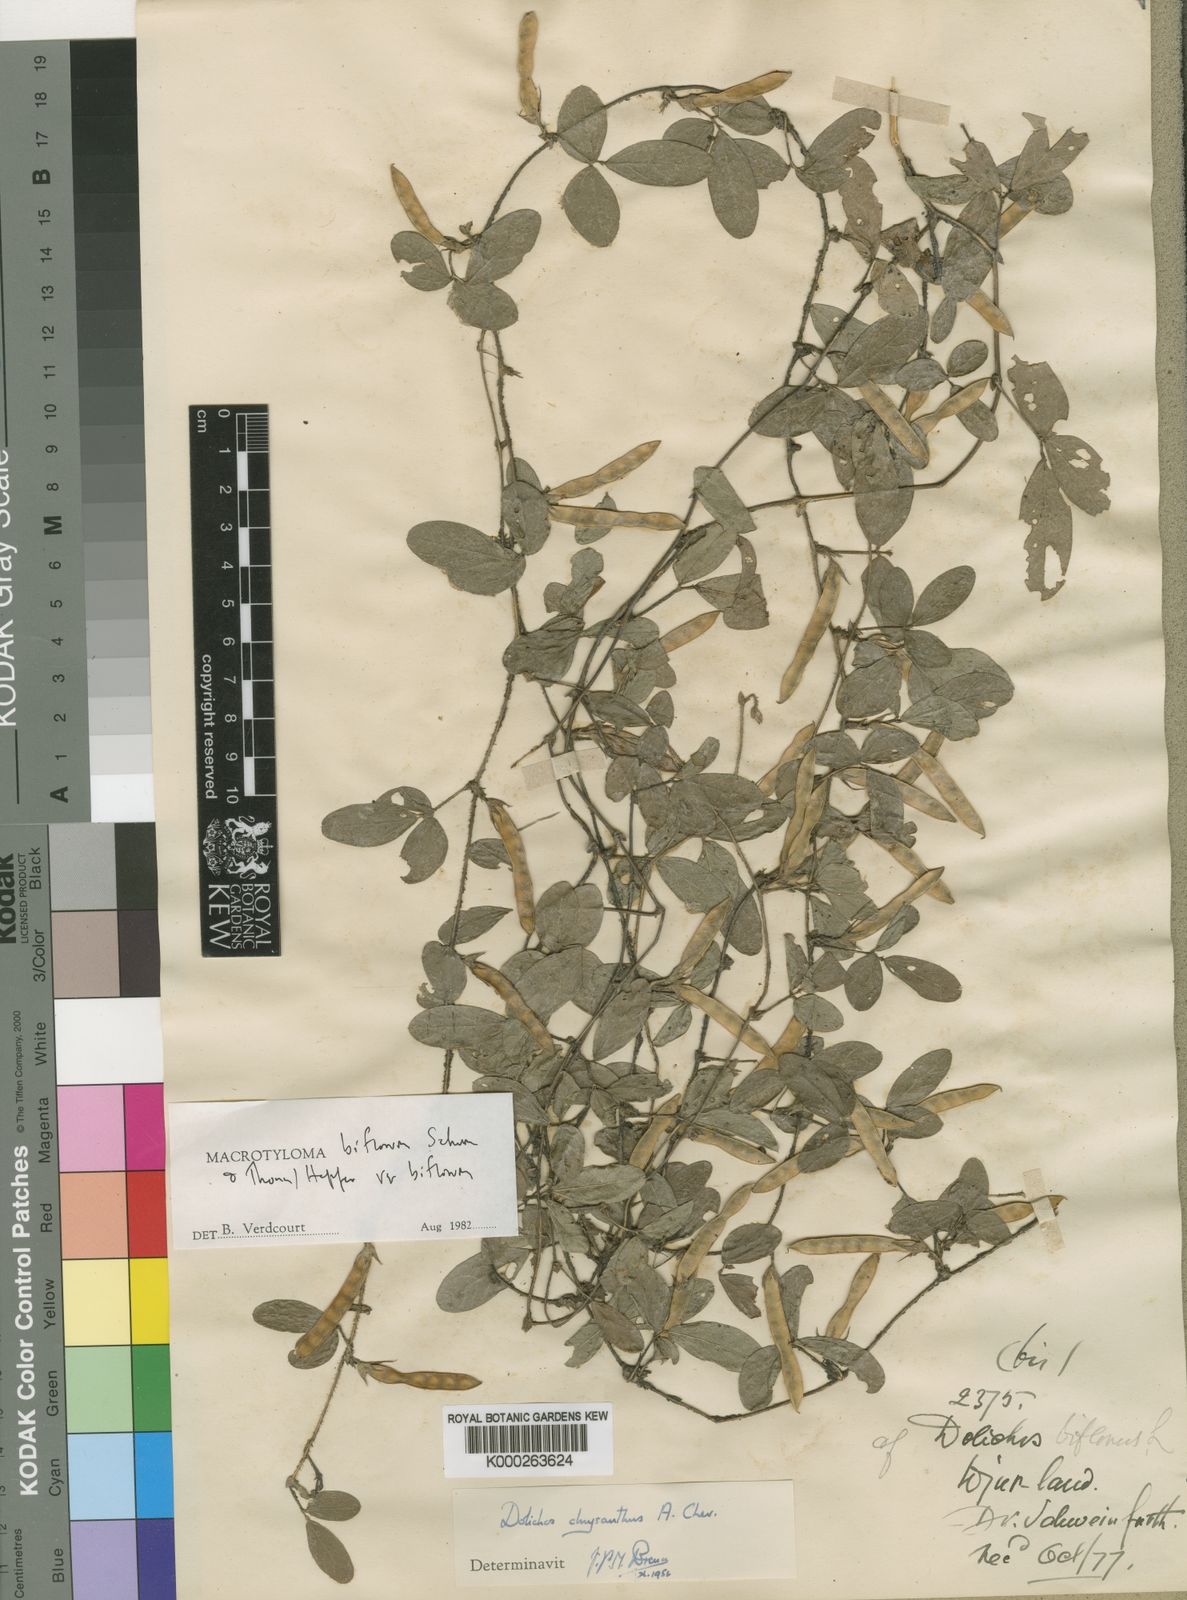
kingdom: Plantae
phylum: Tracheophyta
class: Magnoliopsida
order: Fabales
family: Fabaceae
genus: Macrotyloma
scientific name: Macrotyloma biflorum
